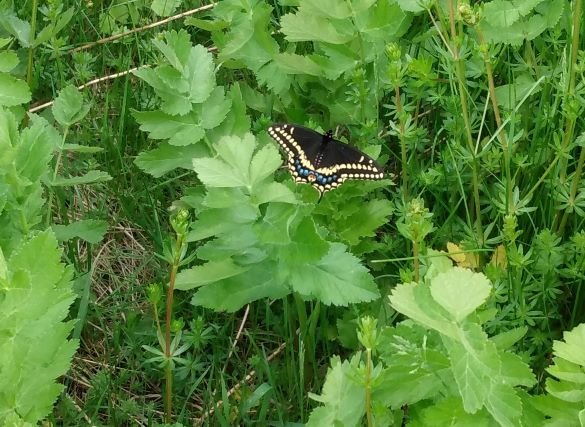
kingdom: Animalia
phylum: Arthropoda
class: Insecta
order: Lepidoptera
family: Papilionidae
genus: Papilio
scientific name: Papilio polyxenes
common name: Black Swallowtail
